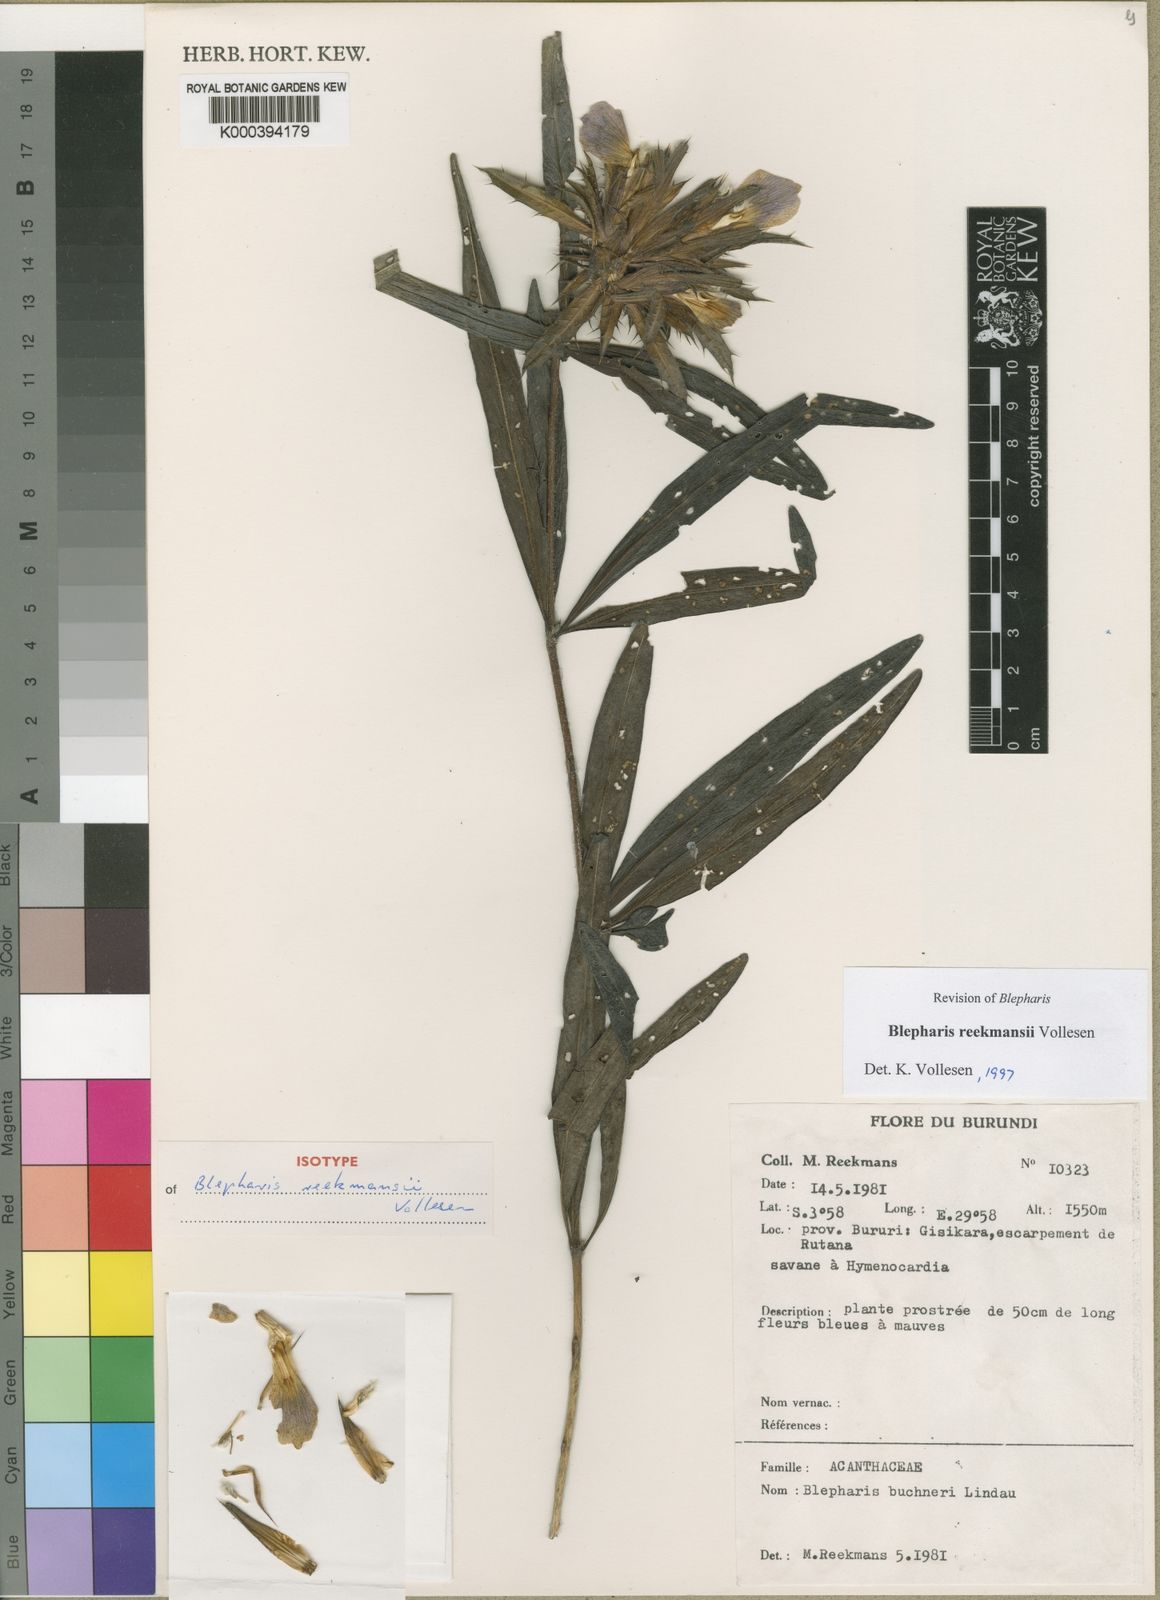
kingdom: Plantae
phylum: Tracheophyta
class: Magnoliopsida
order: Lamiales
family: Acanthaceae
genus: Blepharis
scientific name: Blepharis reekmansii
